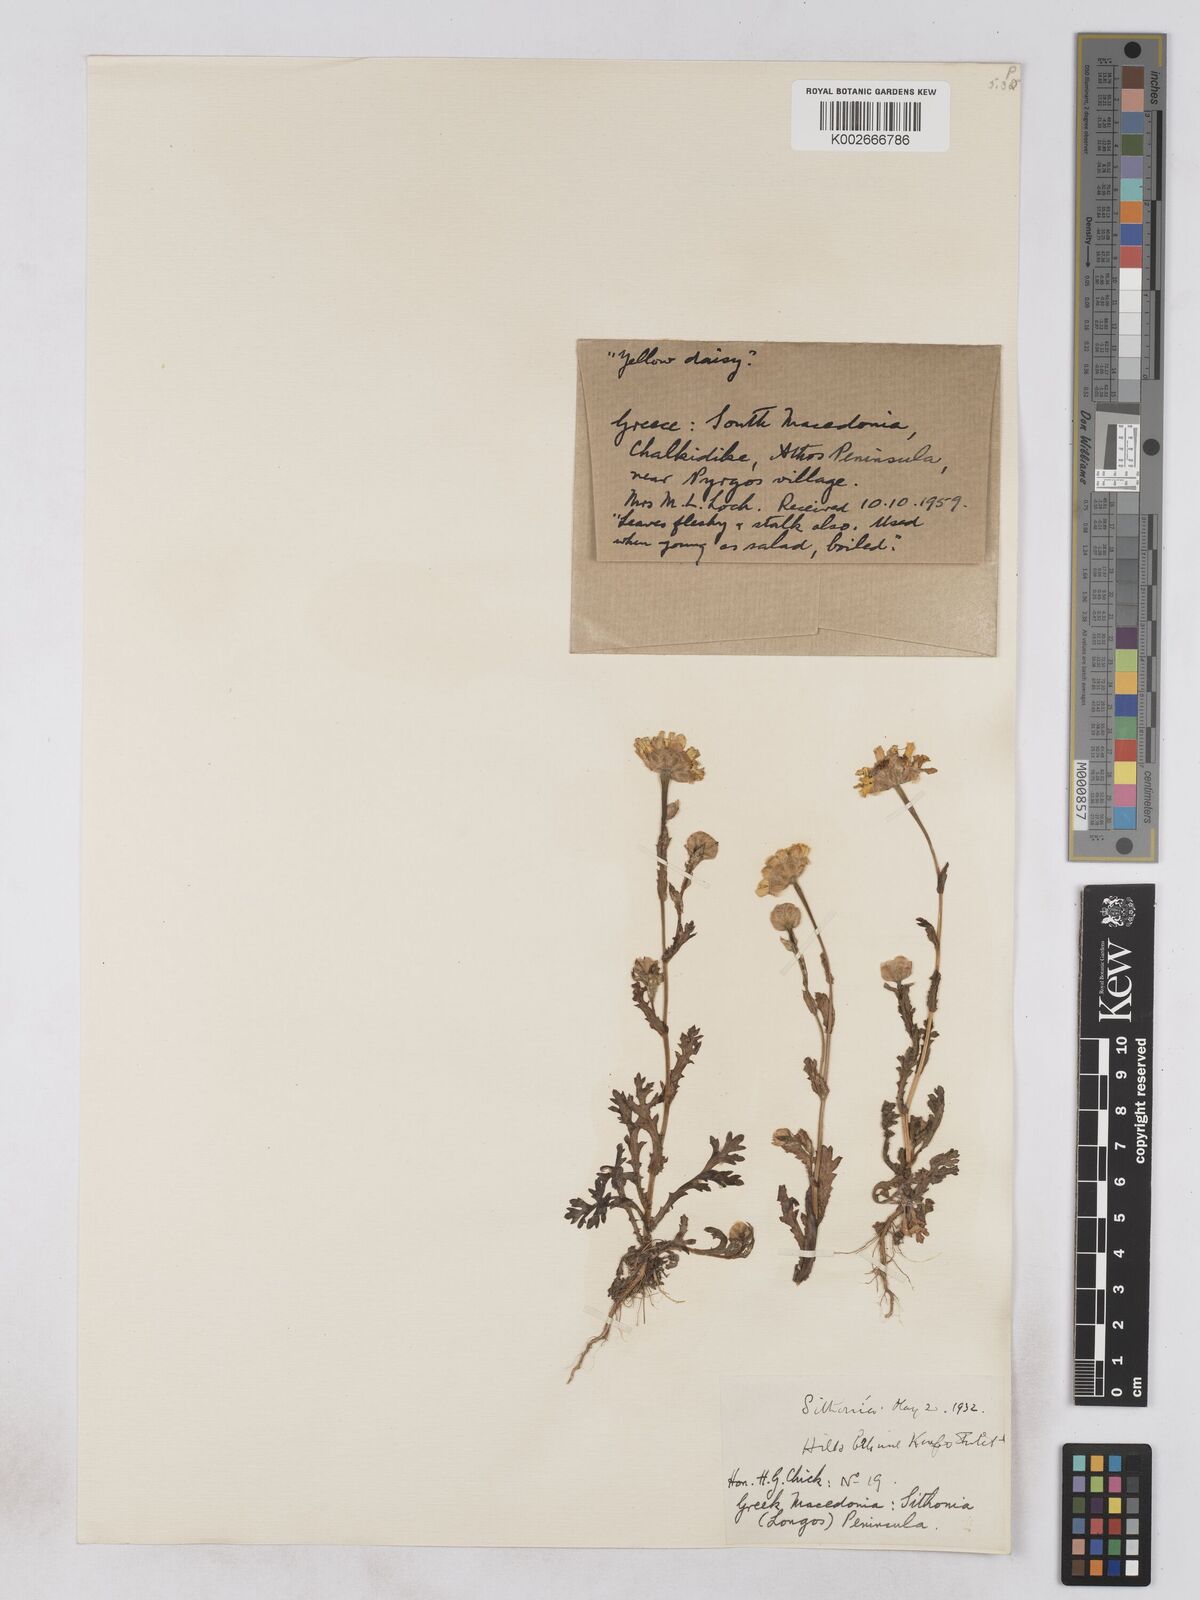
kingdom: Plantae
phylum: Tracheophyta
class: Magnoliopsida
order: Asterales
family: Asteraceae
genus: Glebionis
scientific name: Glebionis segetum
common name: Corndaisy
